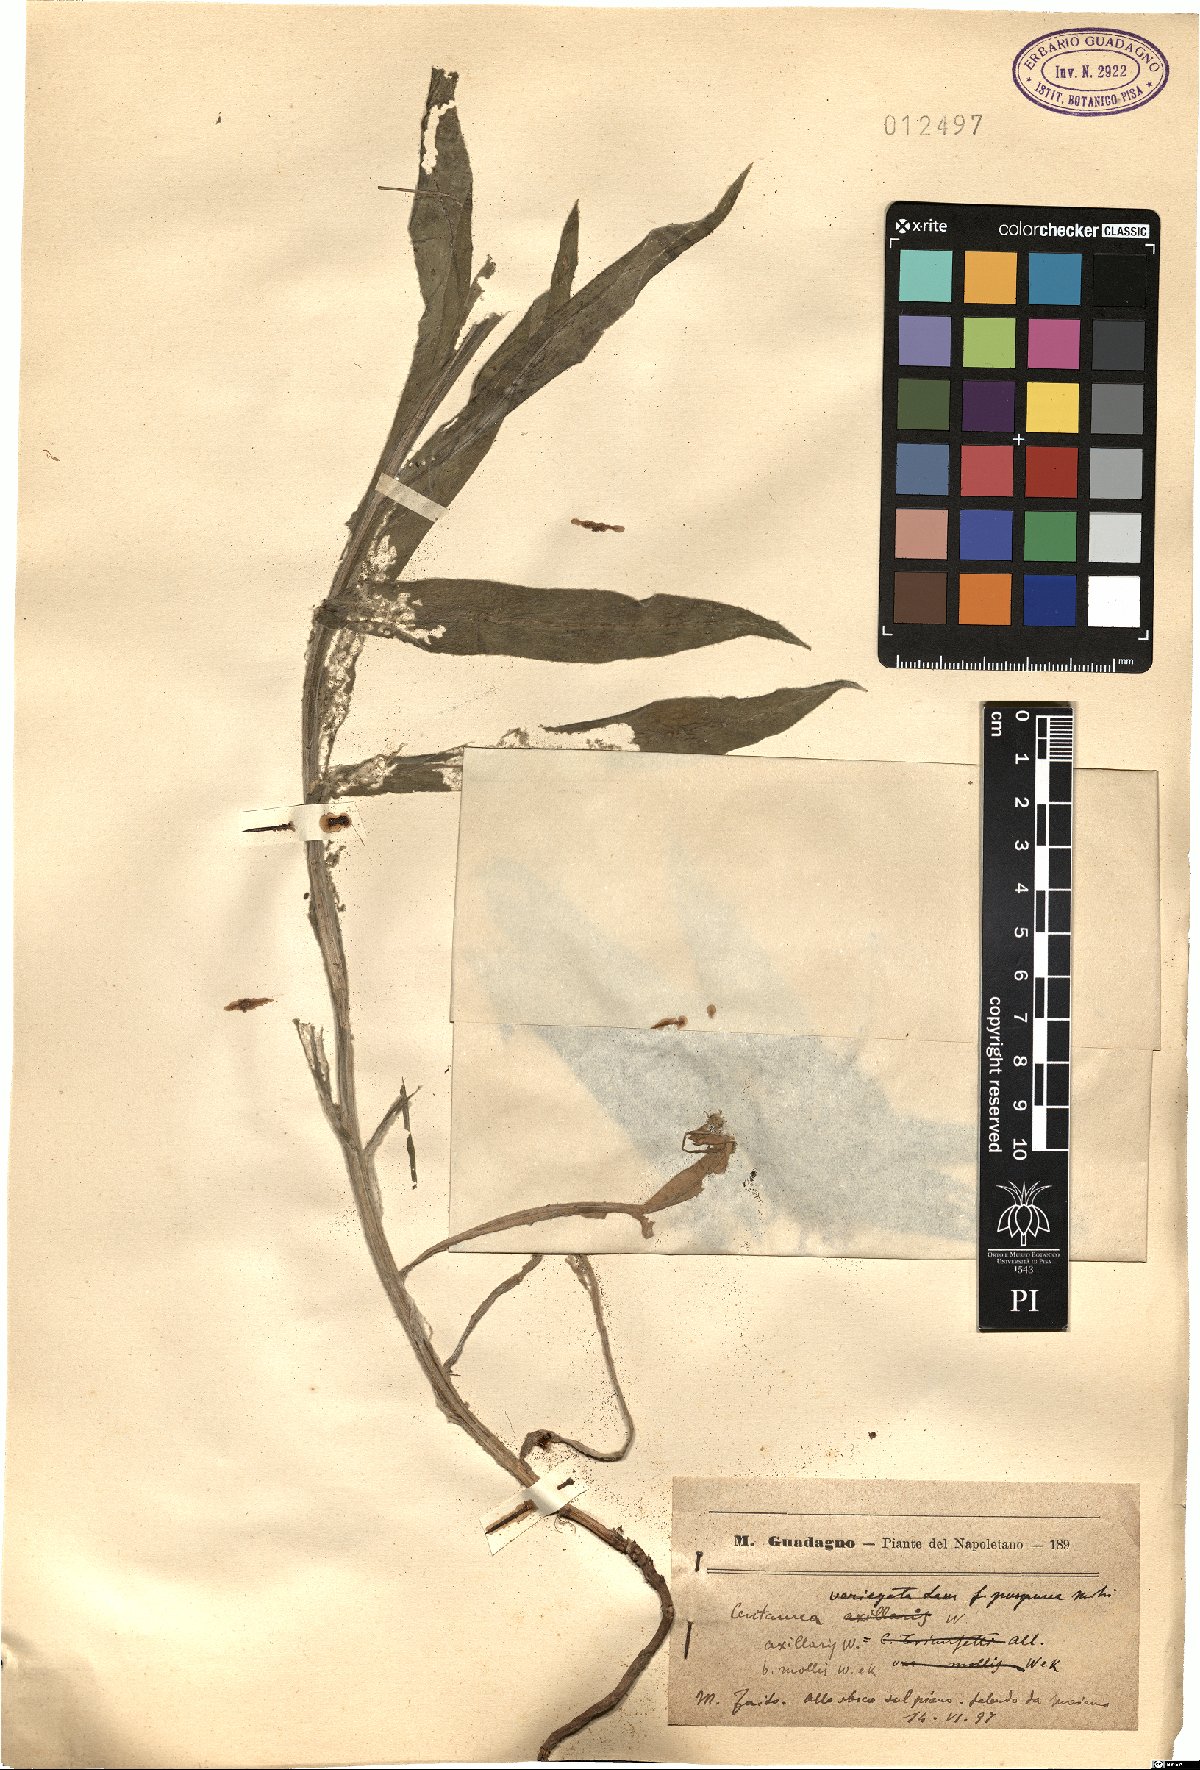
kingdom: Plantae
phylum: Tracheophyta
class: Magnoliopsida
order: Asterales
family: Asteraceae
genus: Centaurea
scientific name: Centaurea triumfettii
